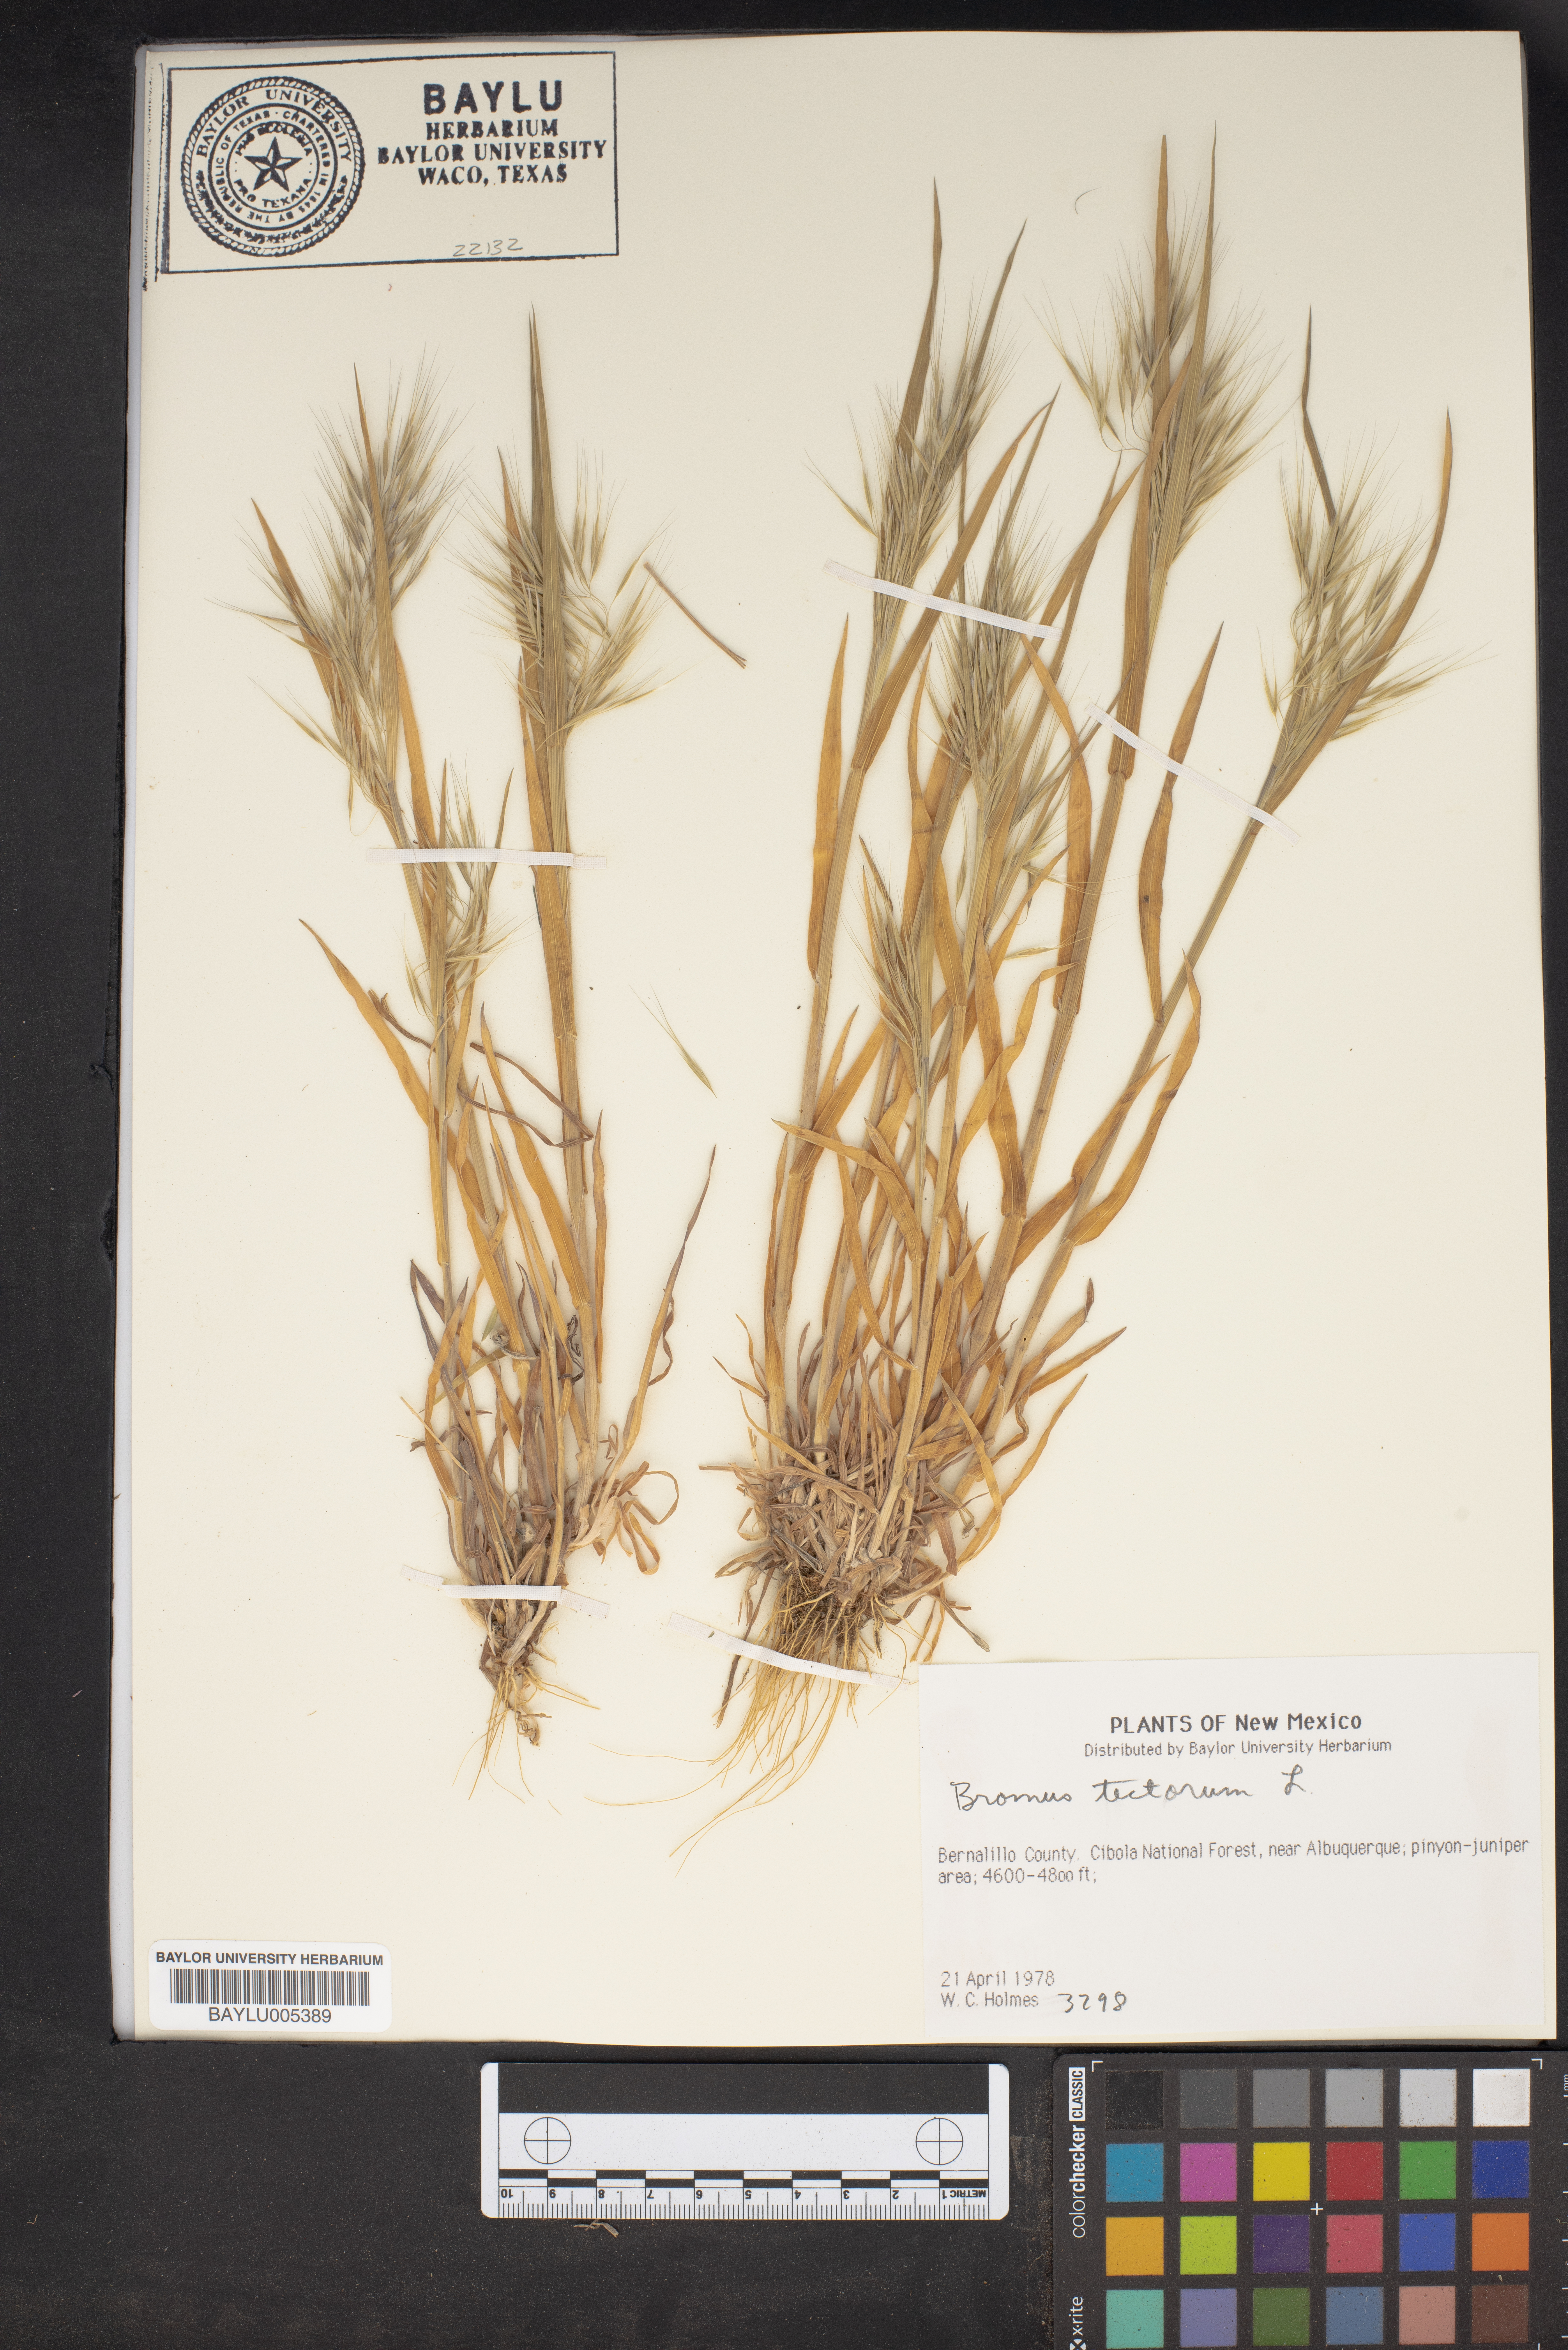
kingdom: Plantae
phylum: Tracheophyta
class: Liliopsida
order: Poales
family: Poaceae
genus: Bromus
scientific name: Bromus tectorum
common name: Cheatgrass
